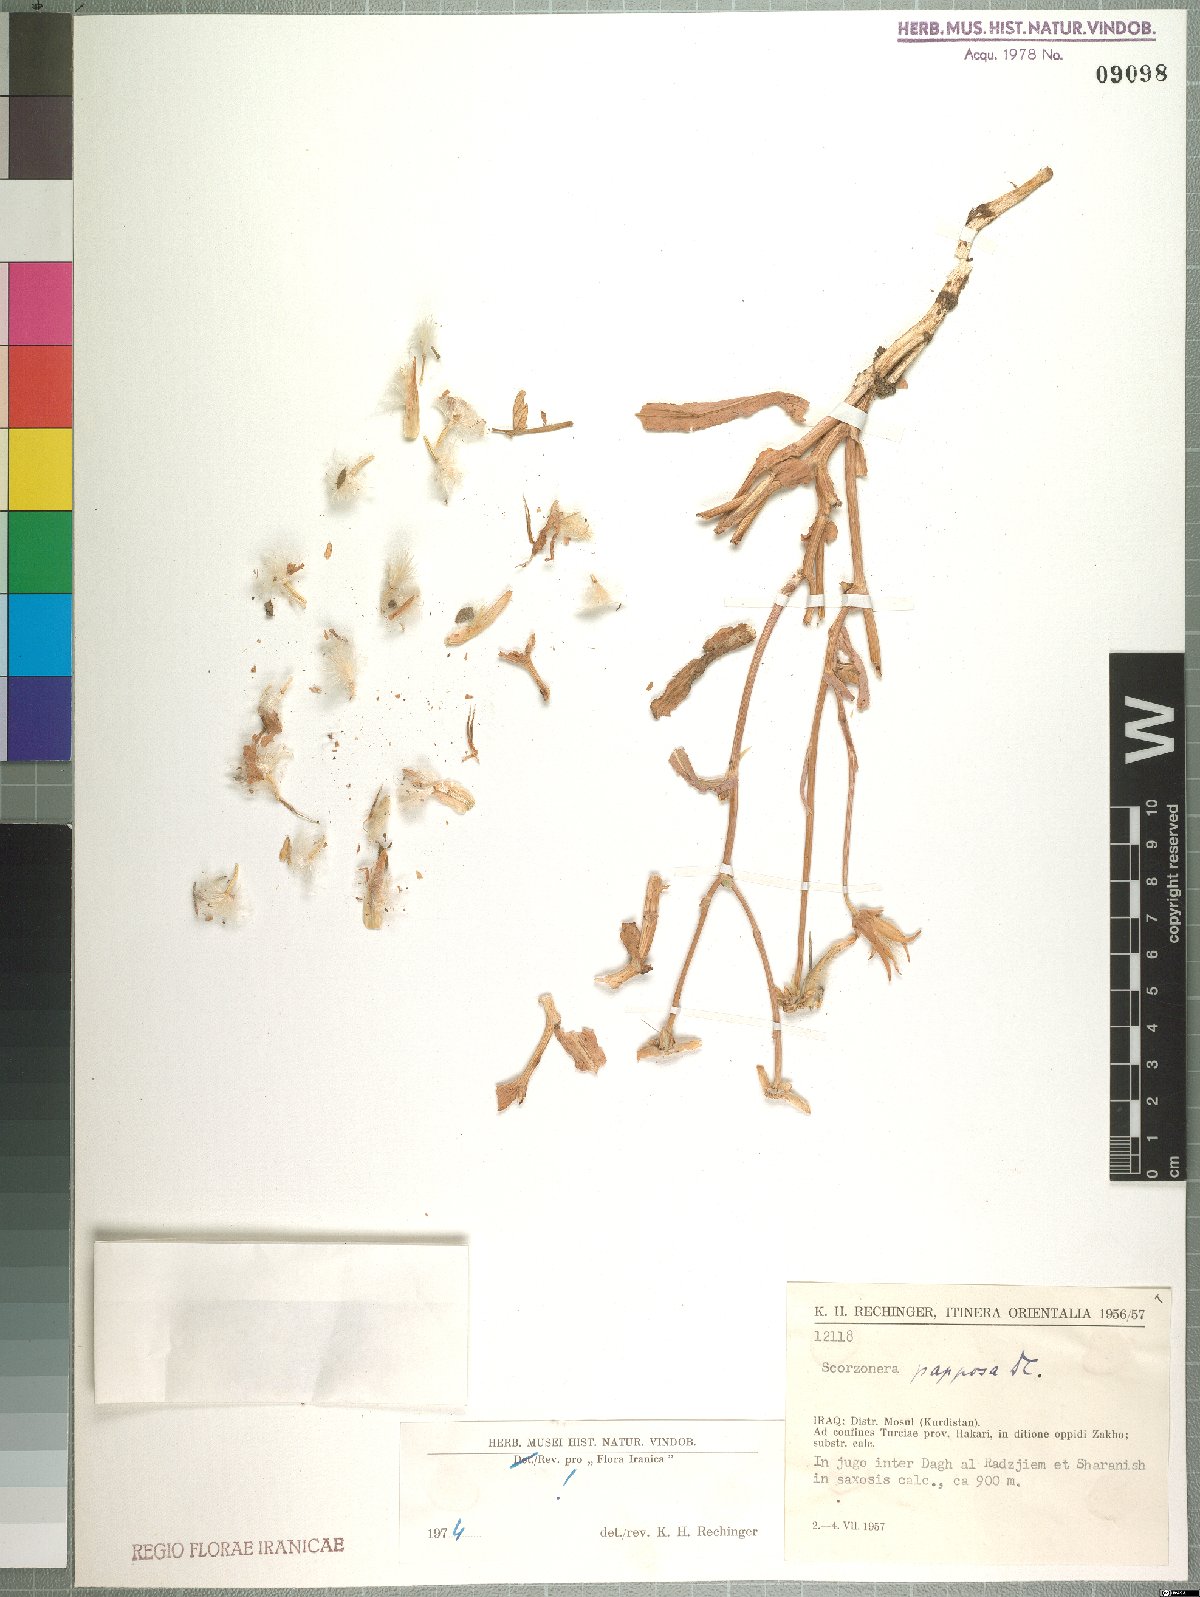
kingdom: Plantae
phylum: Tracheophyta
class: Magnoliopsida
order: Asterales
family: Asteraceae
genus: Pseudopodospermum
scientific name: Pseudopodospermum papposum
